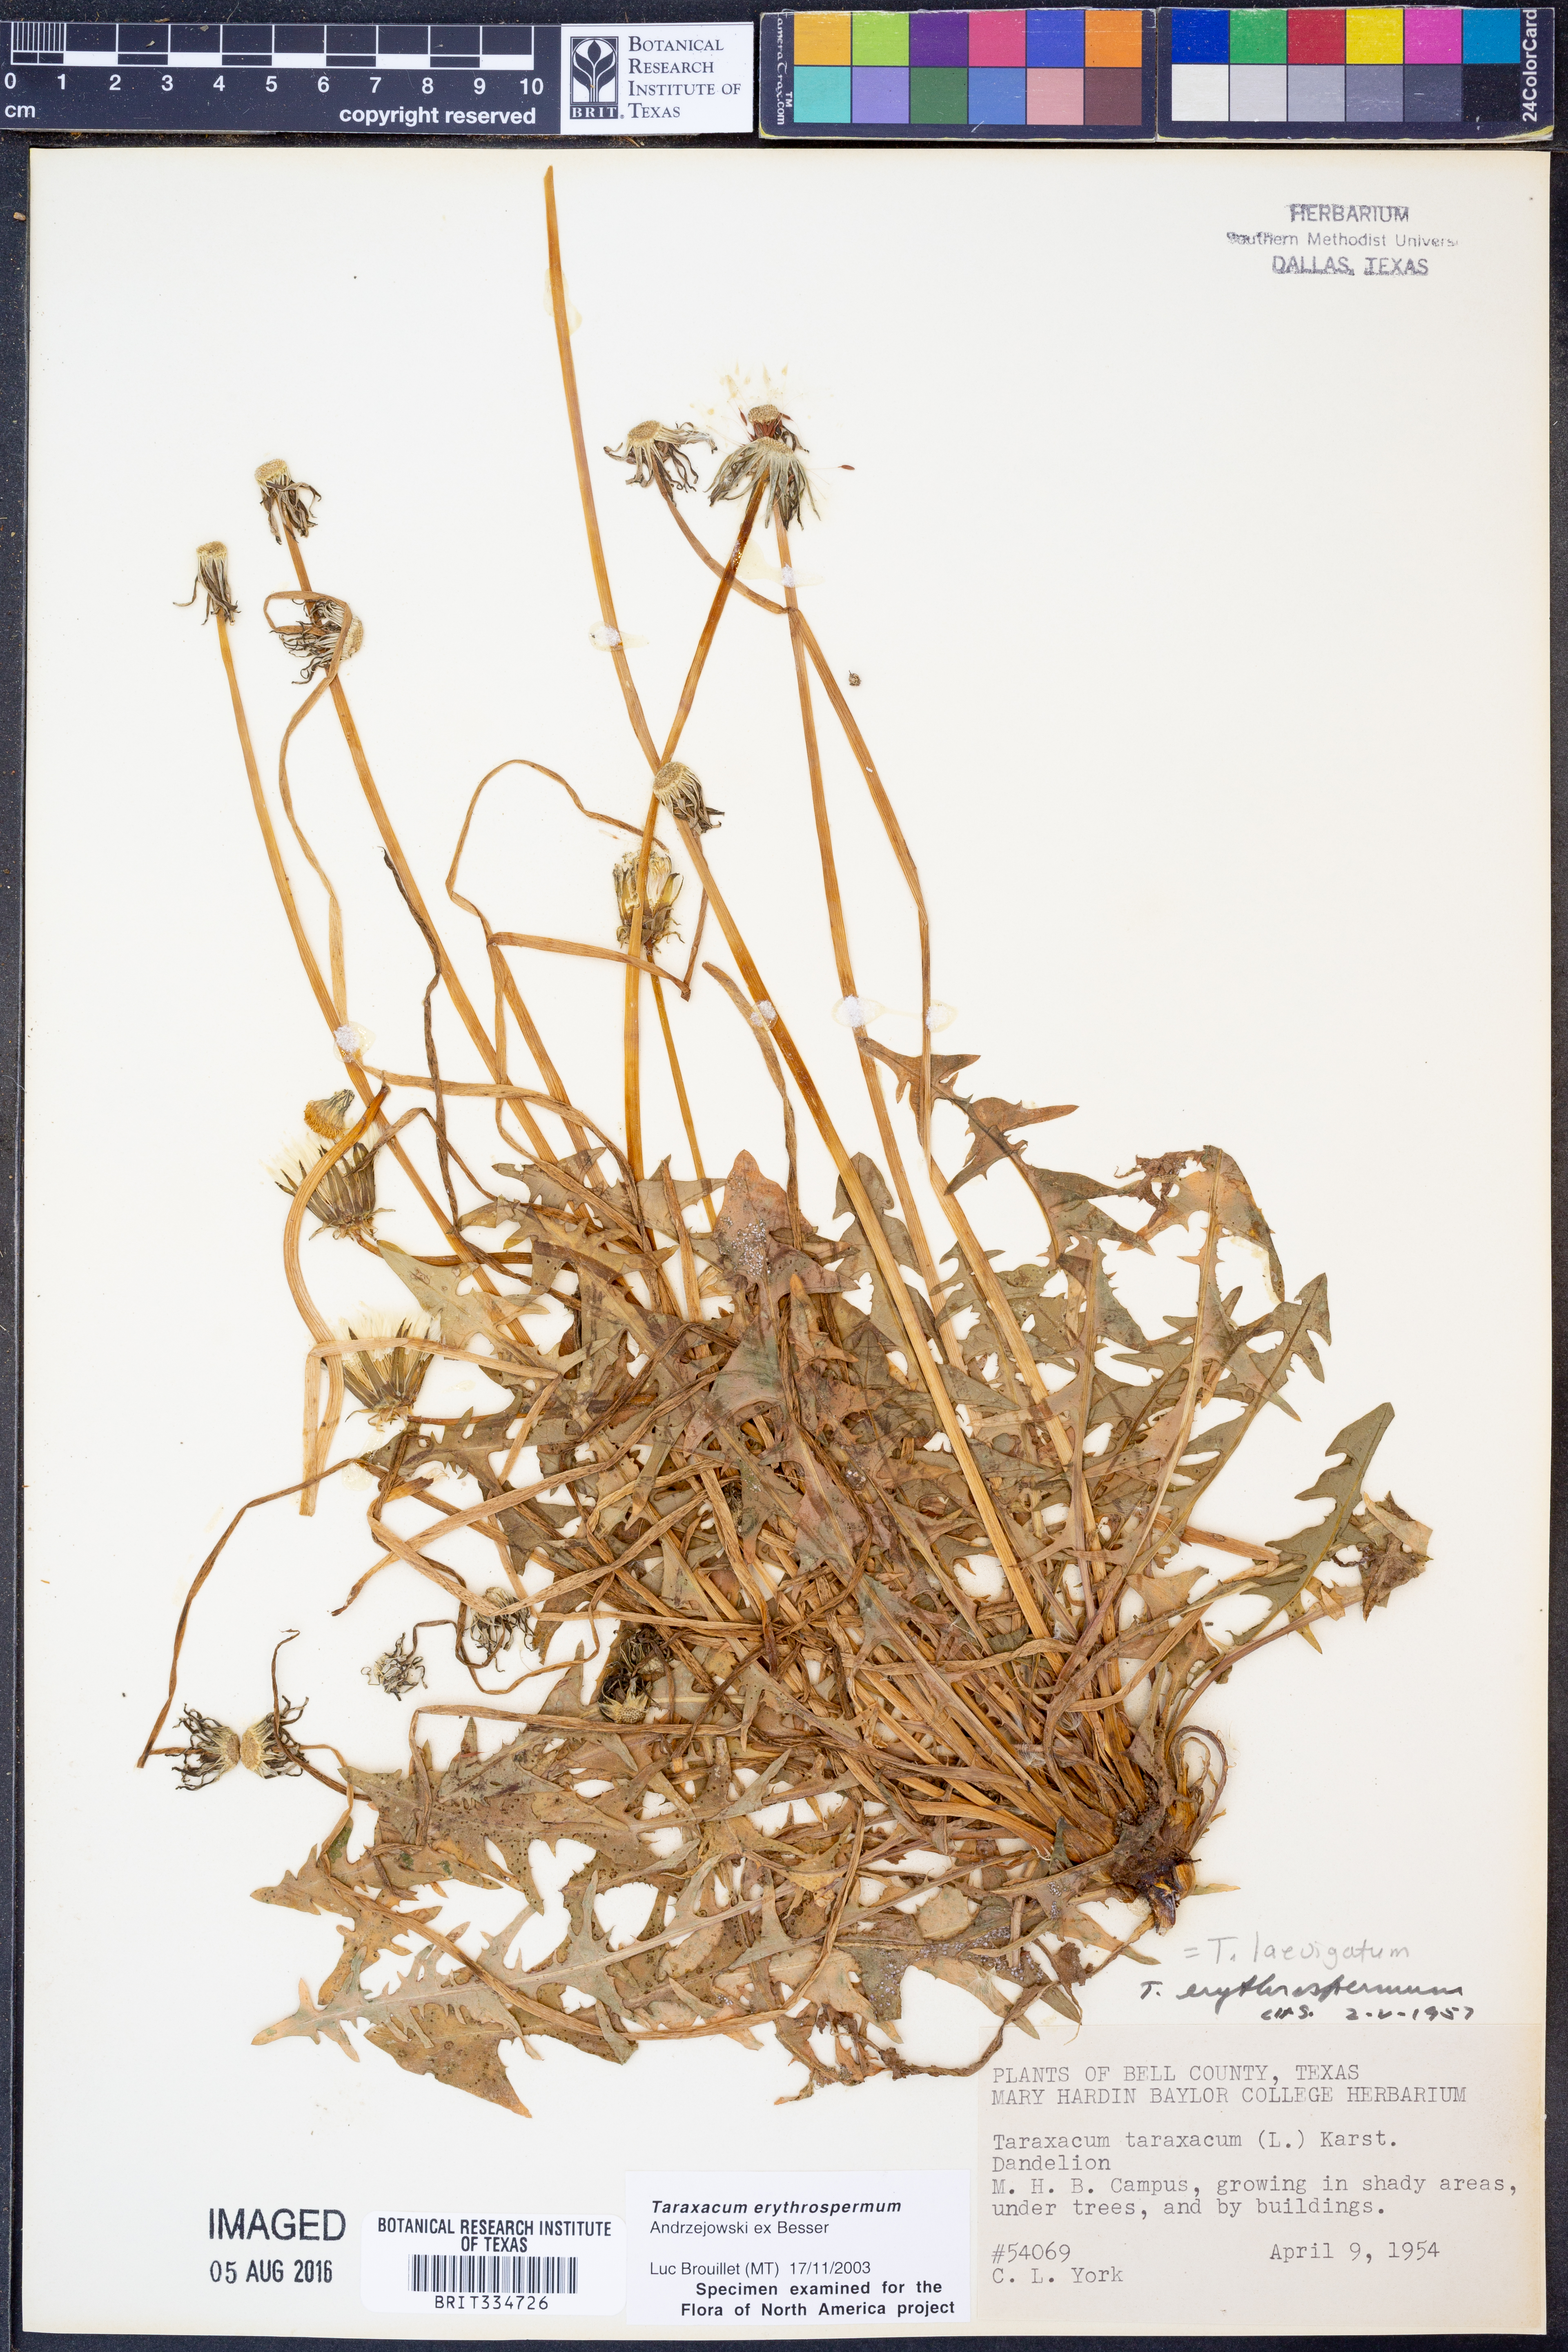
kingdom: Plantae
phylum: Tracheophyta
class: Magnoliopsida
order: Asterales
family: Asteraceae
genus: Taraxacum
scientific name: Taraxacum erythrospermum
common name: Rock dandelion
